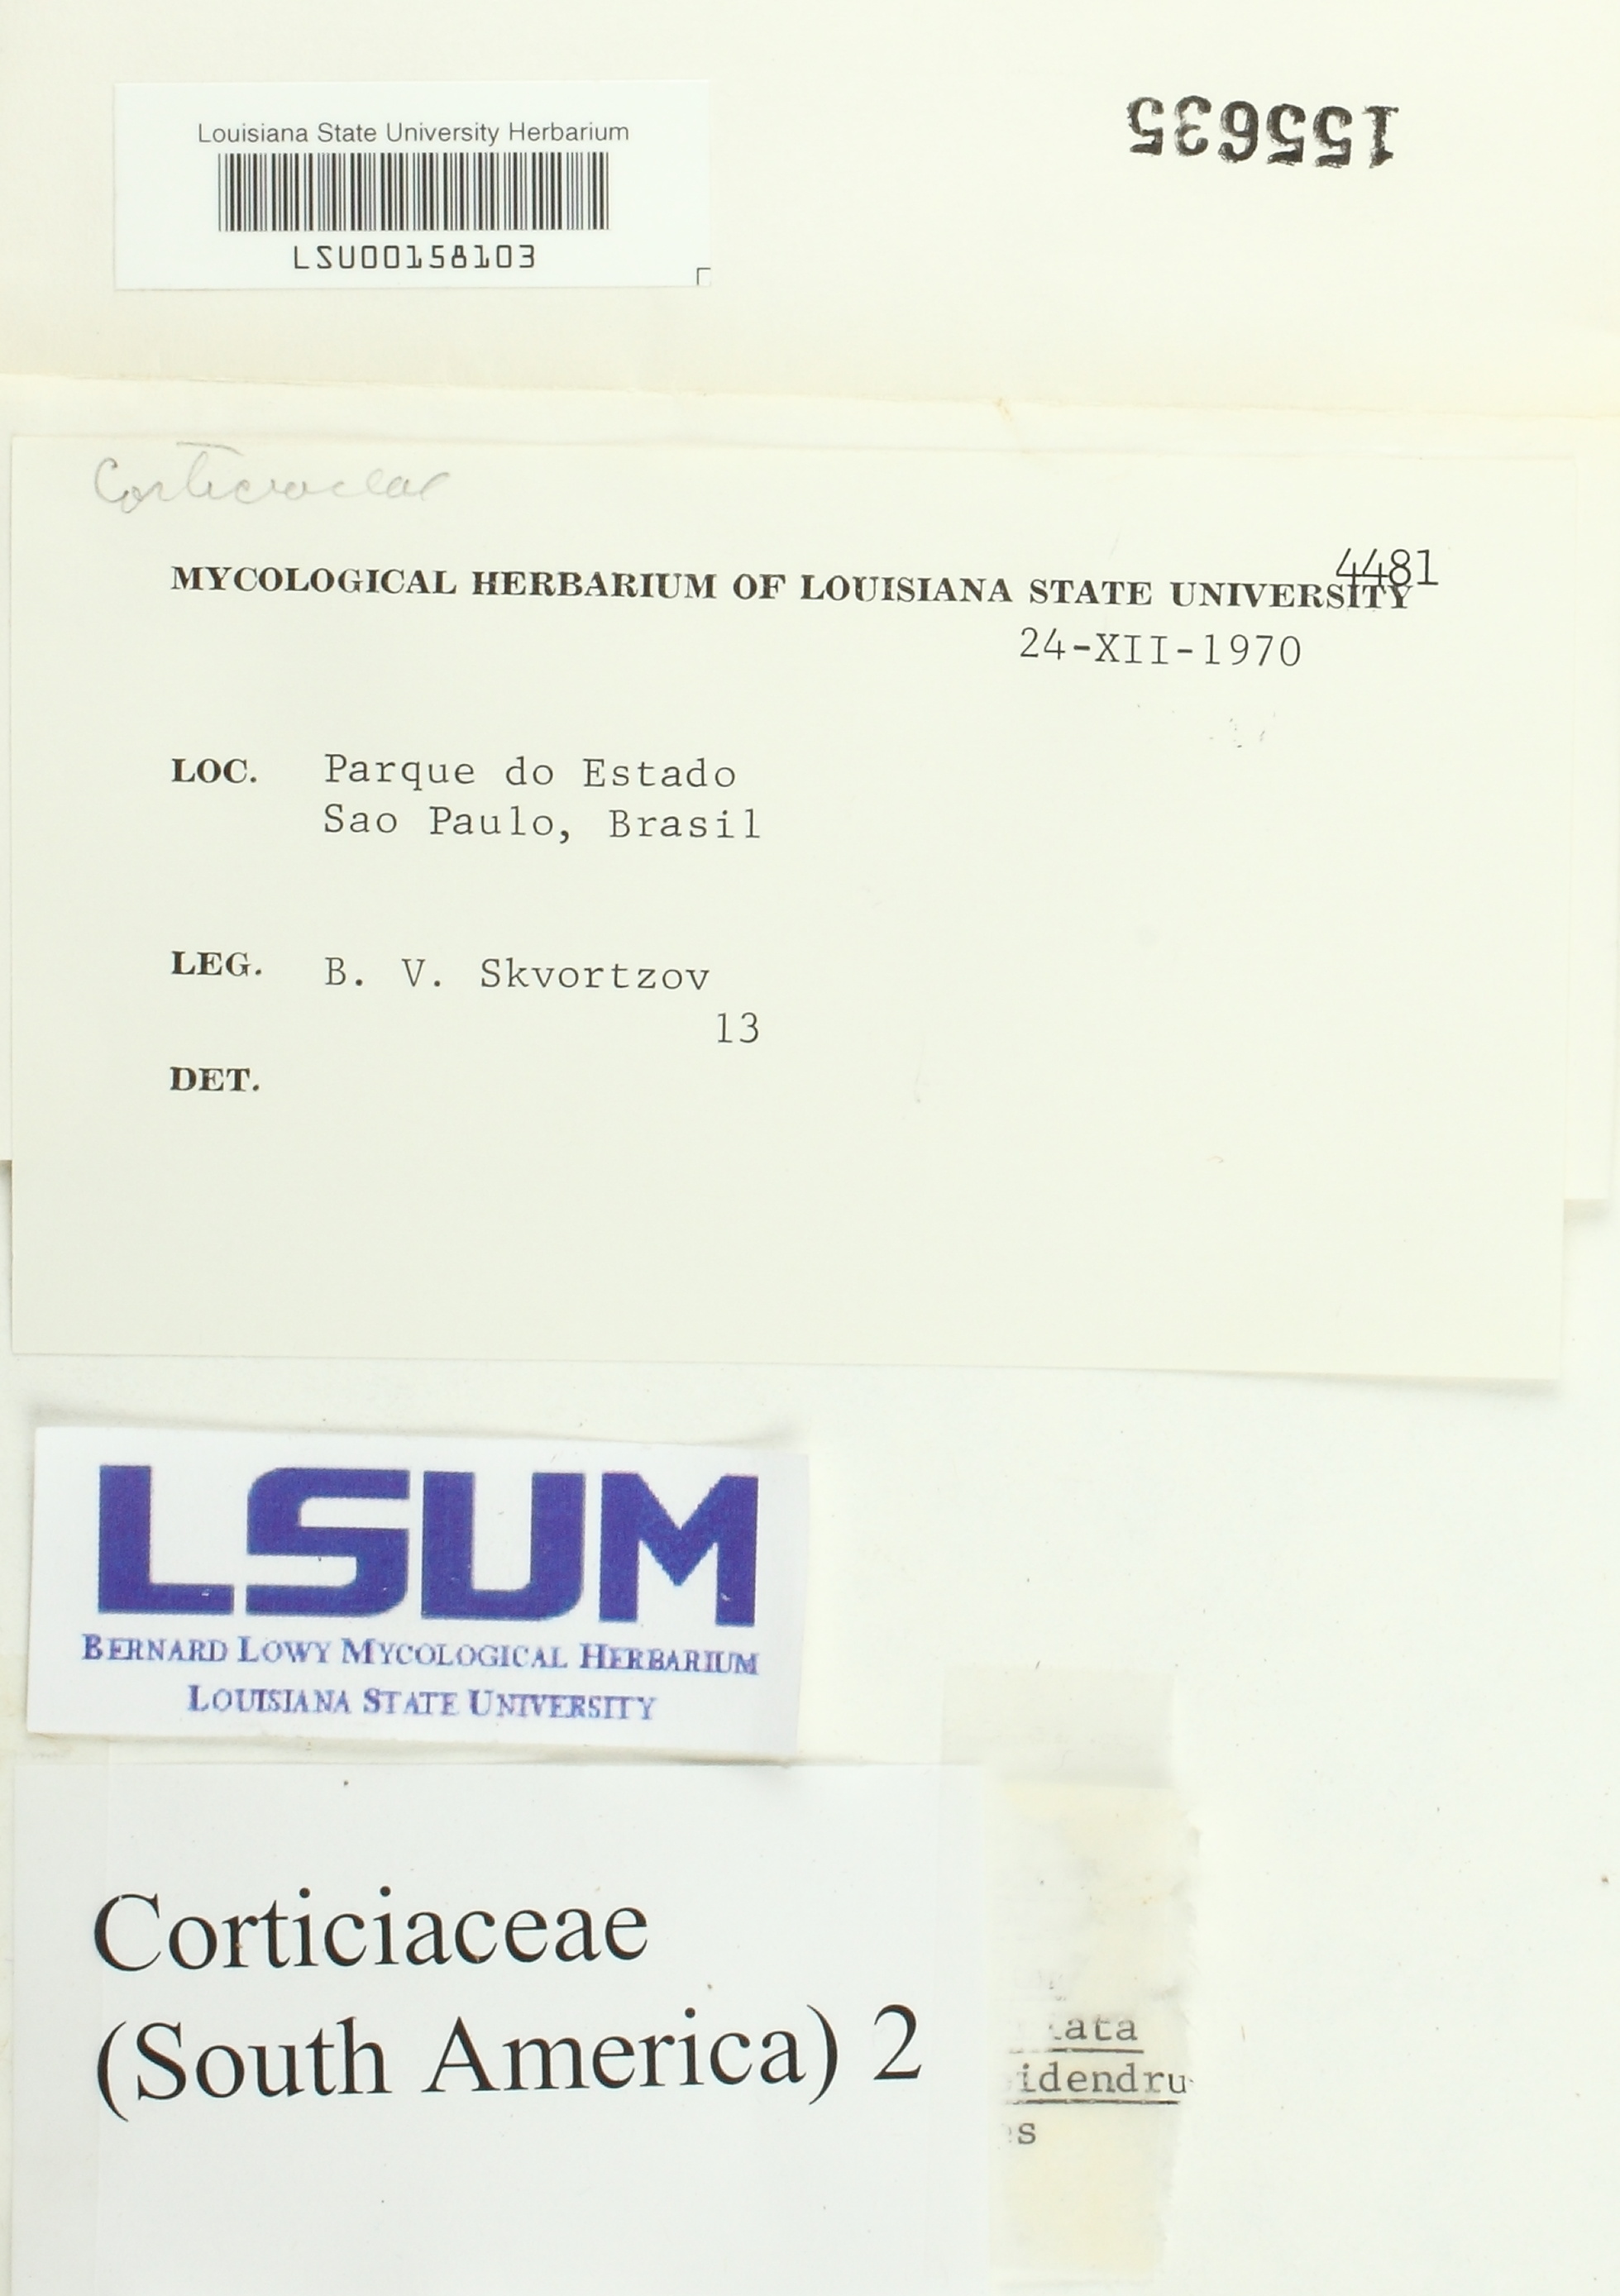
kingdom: Fungi
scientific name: Fungi
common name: Fungi
